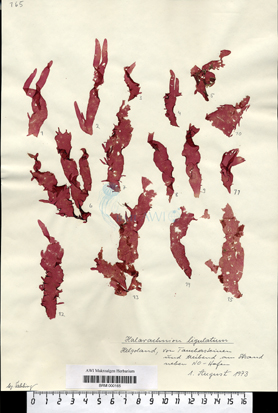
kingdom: Plantae
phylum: Rhodophyta
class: Florideophyceae
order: Gigartinales
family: Furcellariaceae
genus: Halarachnion
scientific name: Halarachnion ligulatum
